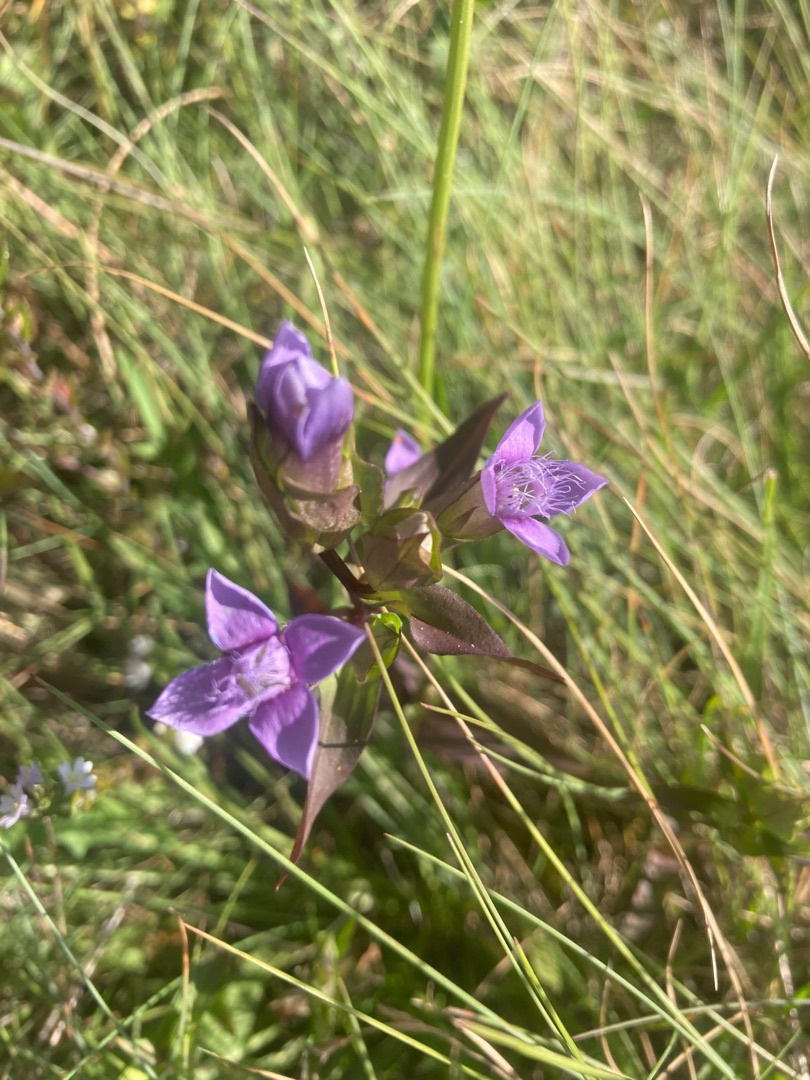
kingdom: Plantae
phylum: Tracheophyta
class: Magnoliopsida
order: Gentianales
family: Gentianaceae
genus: Gentianella
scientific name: Gentianella campestris
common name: Bredbægret ensian
